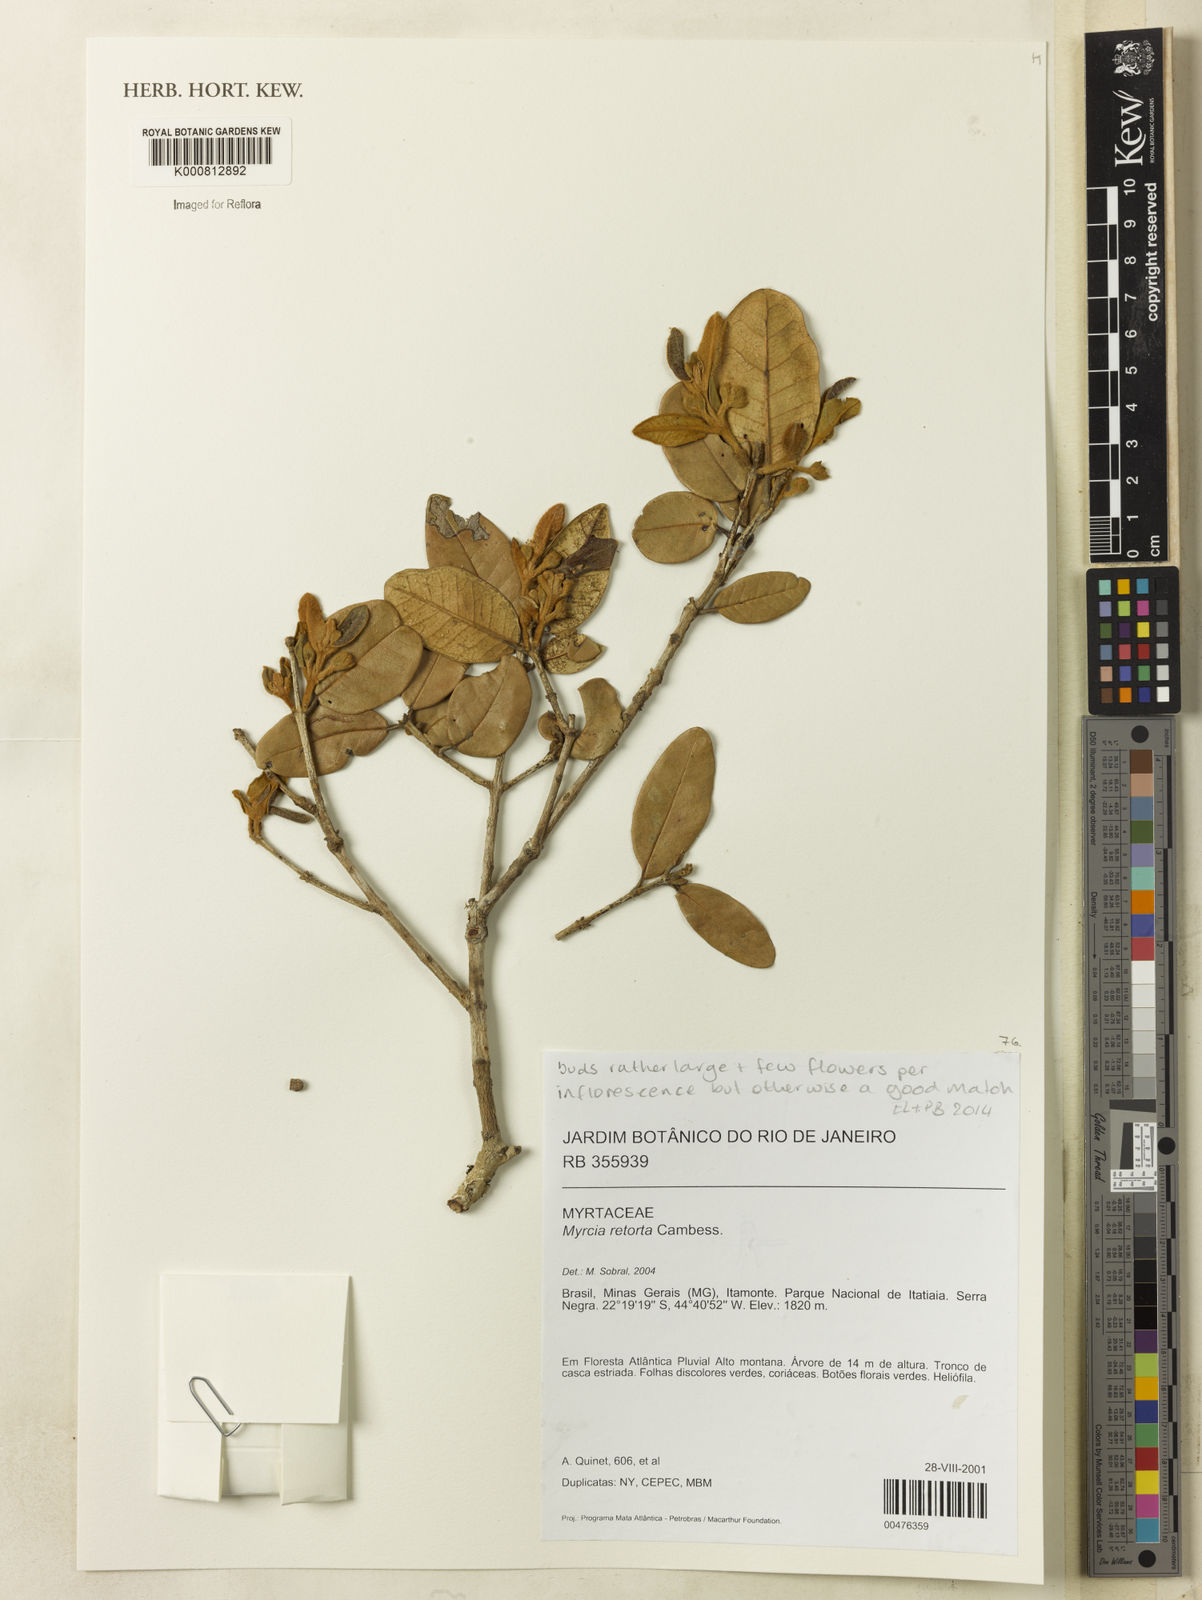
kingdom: Plantae
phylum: Tracheophyta
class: Magnoliopsida
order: Myrtales
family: Myrtaceae
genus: Myrcia
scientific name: Myrcia retorta
